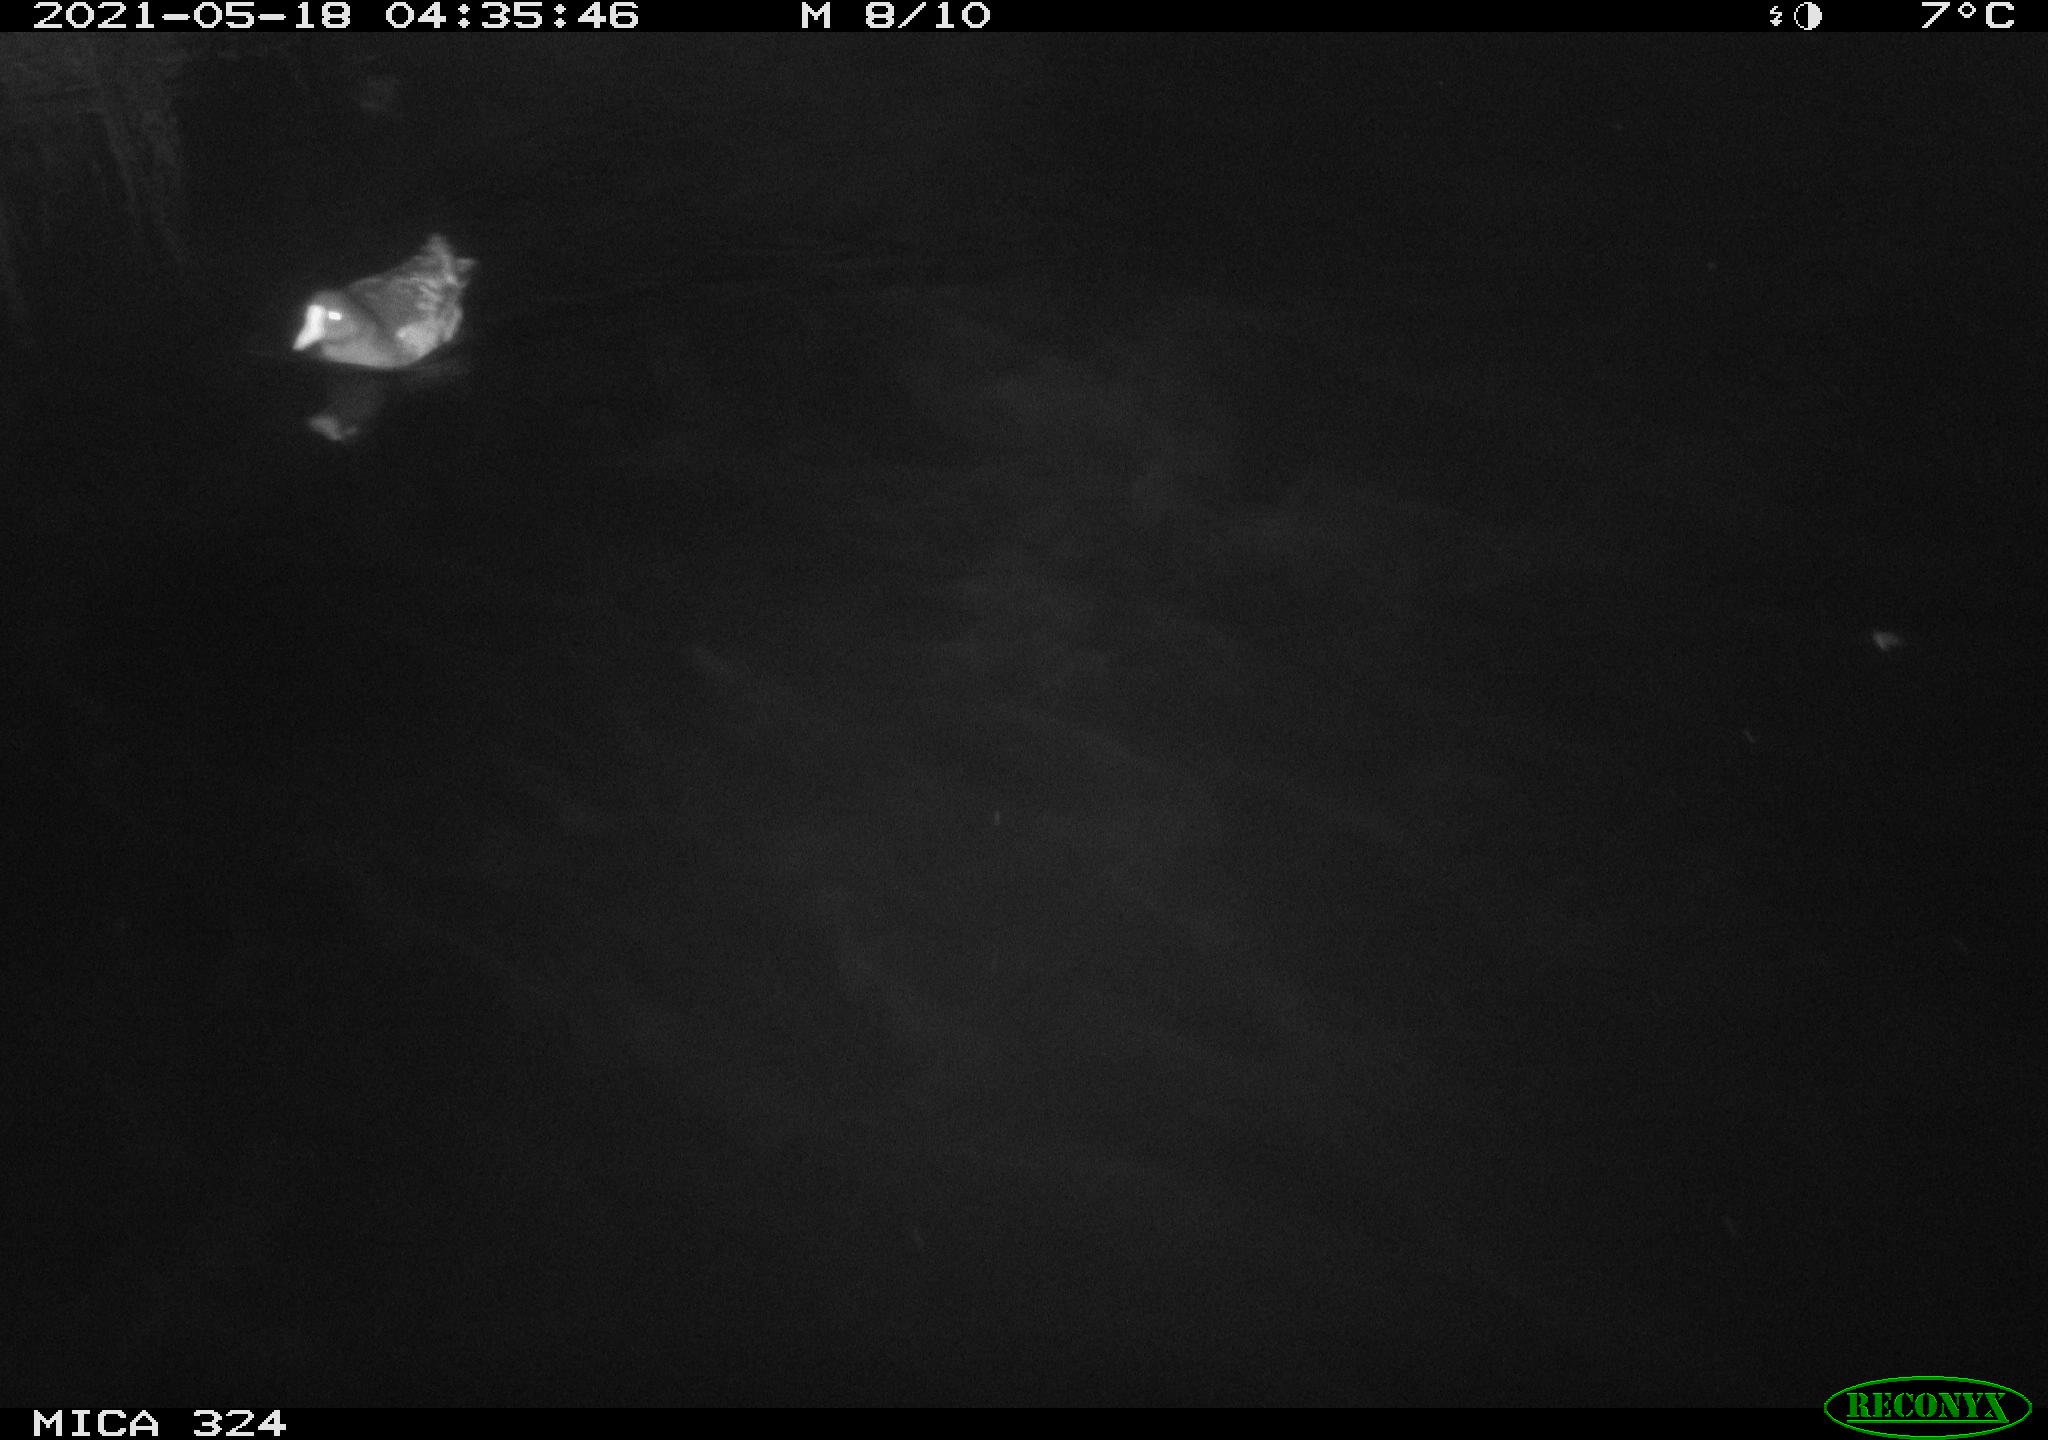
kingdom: Animalia
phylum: Chordata
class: Aves
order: Gruiformes
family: Rallidae
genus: Gallinula
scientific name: Gallinula chloropus
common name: Common moorhen
